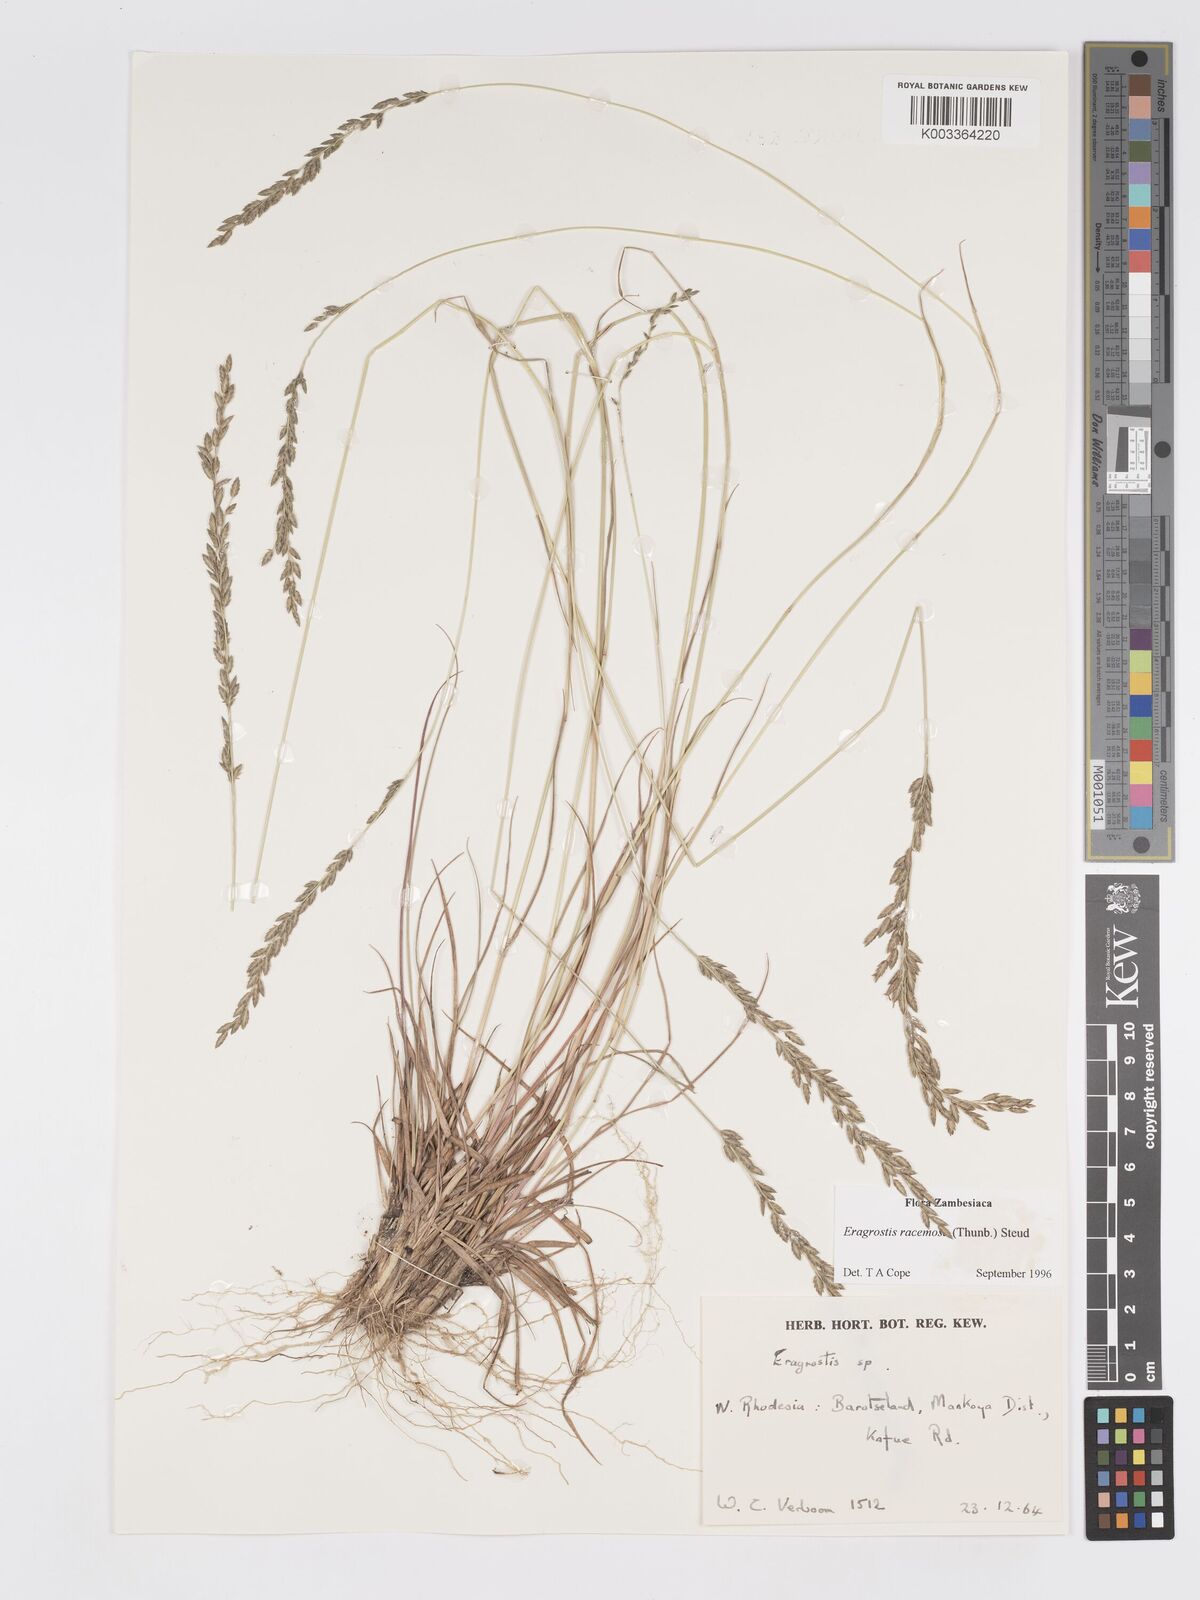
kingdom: Plantae
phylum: Tracheophyta
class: Liliopsida
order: Poales
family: Poaceae
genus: Eragrostis
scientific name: Eragrostis racemosa
